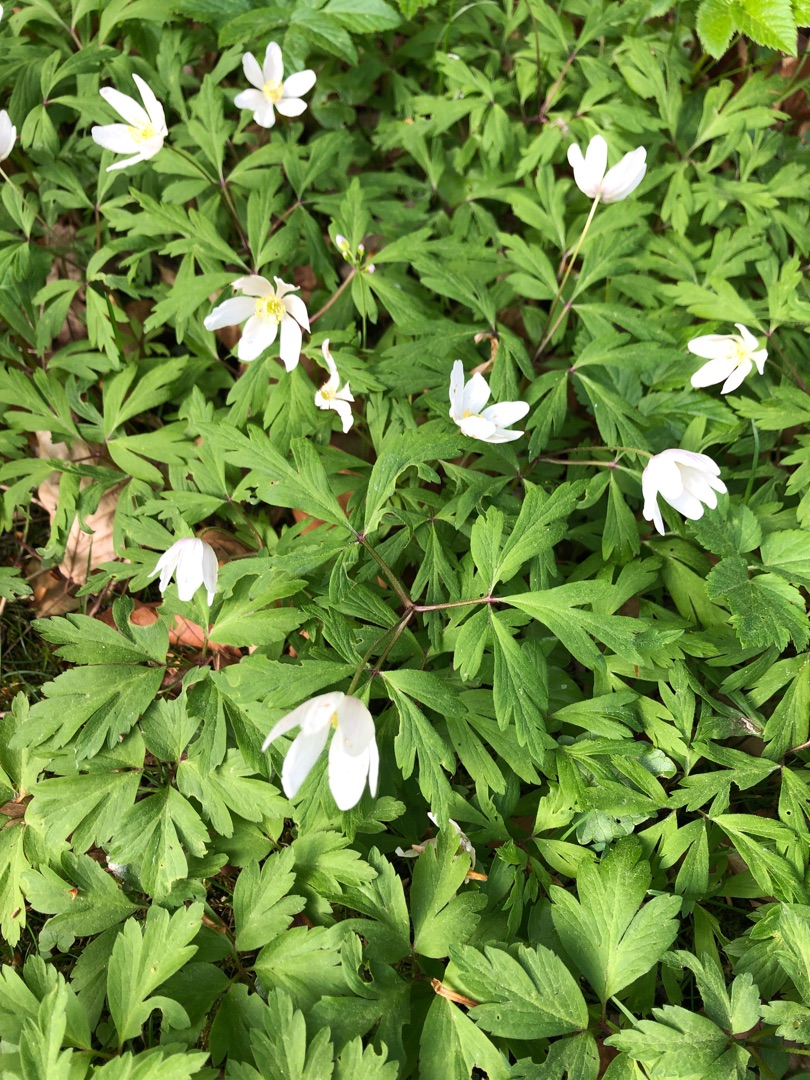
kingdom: Plantae
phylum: Tracheophyta
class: Magnoliopsida
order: Ranunculales
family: Ranunculaceae
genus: Anemone
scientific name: Anemone nemorosa
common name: Hvid anemone
